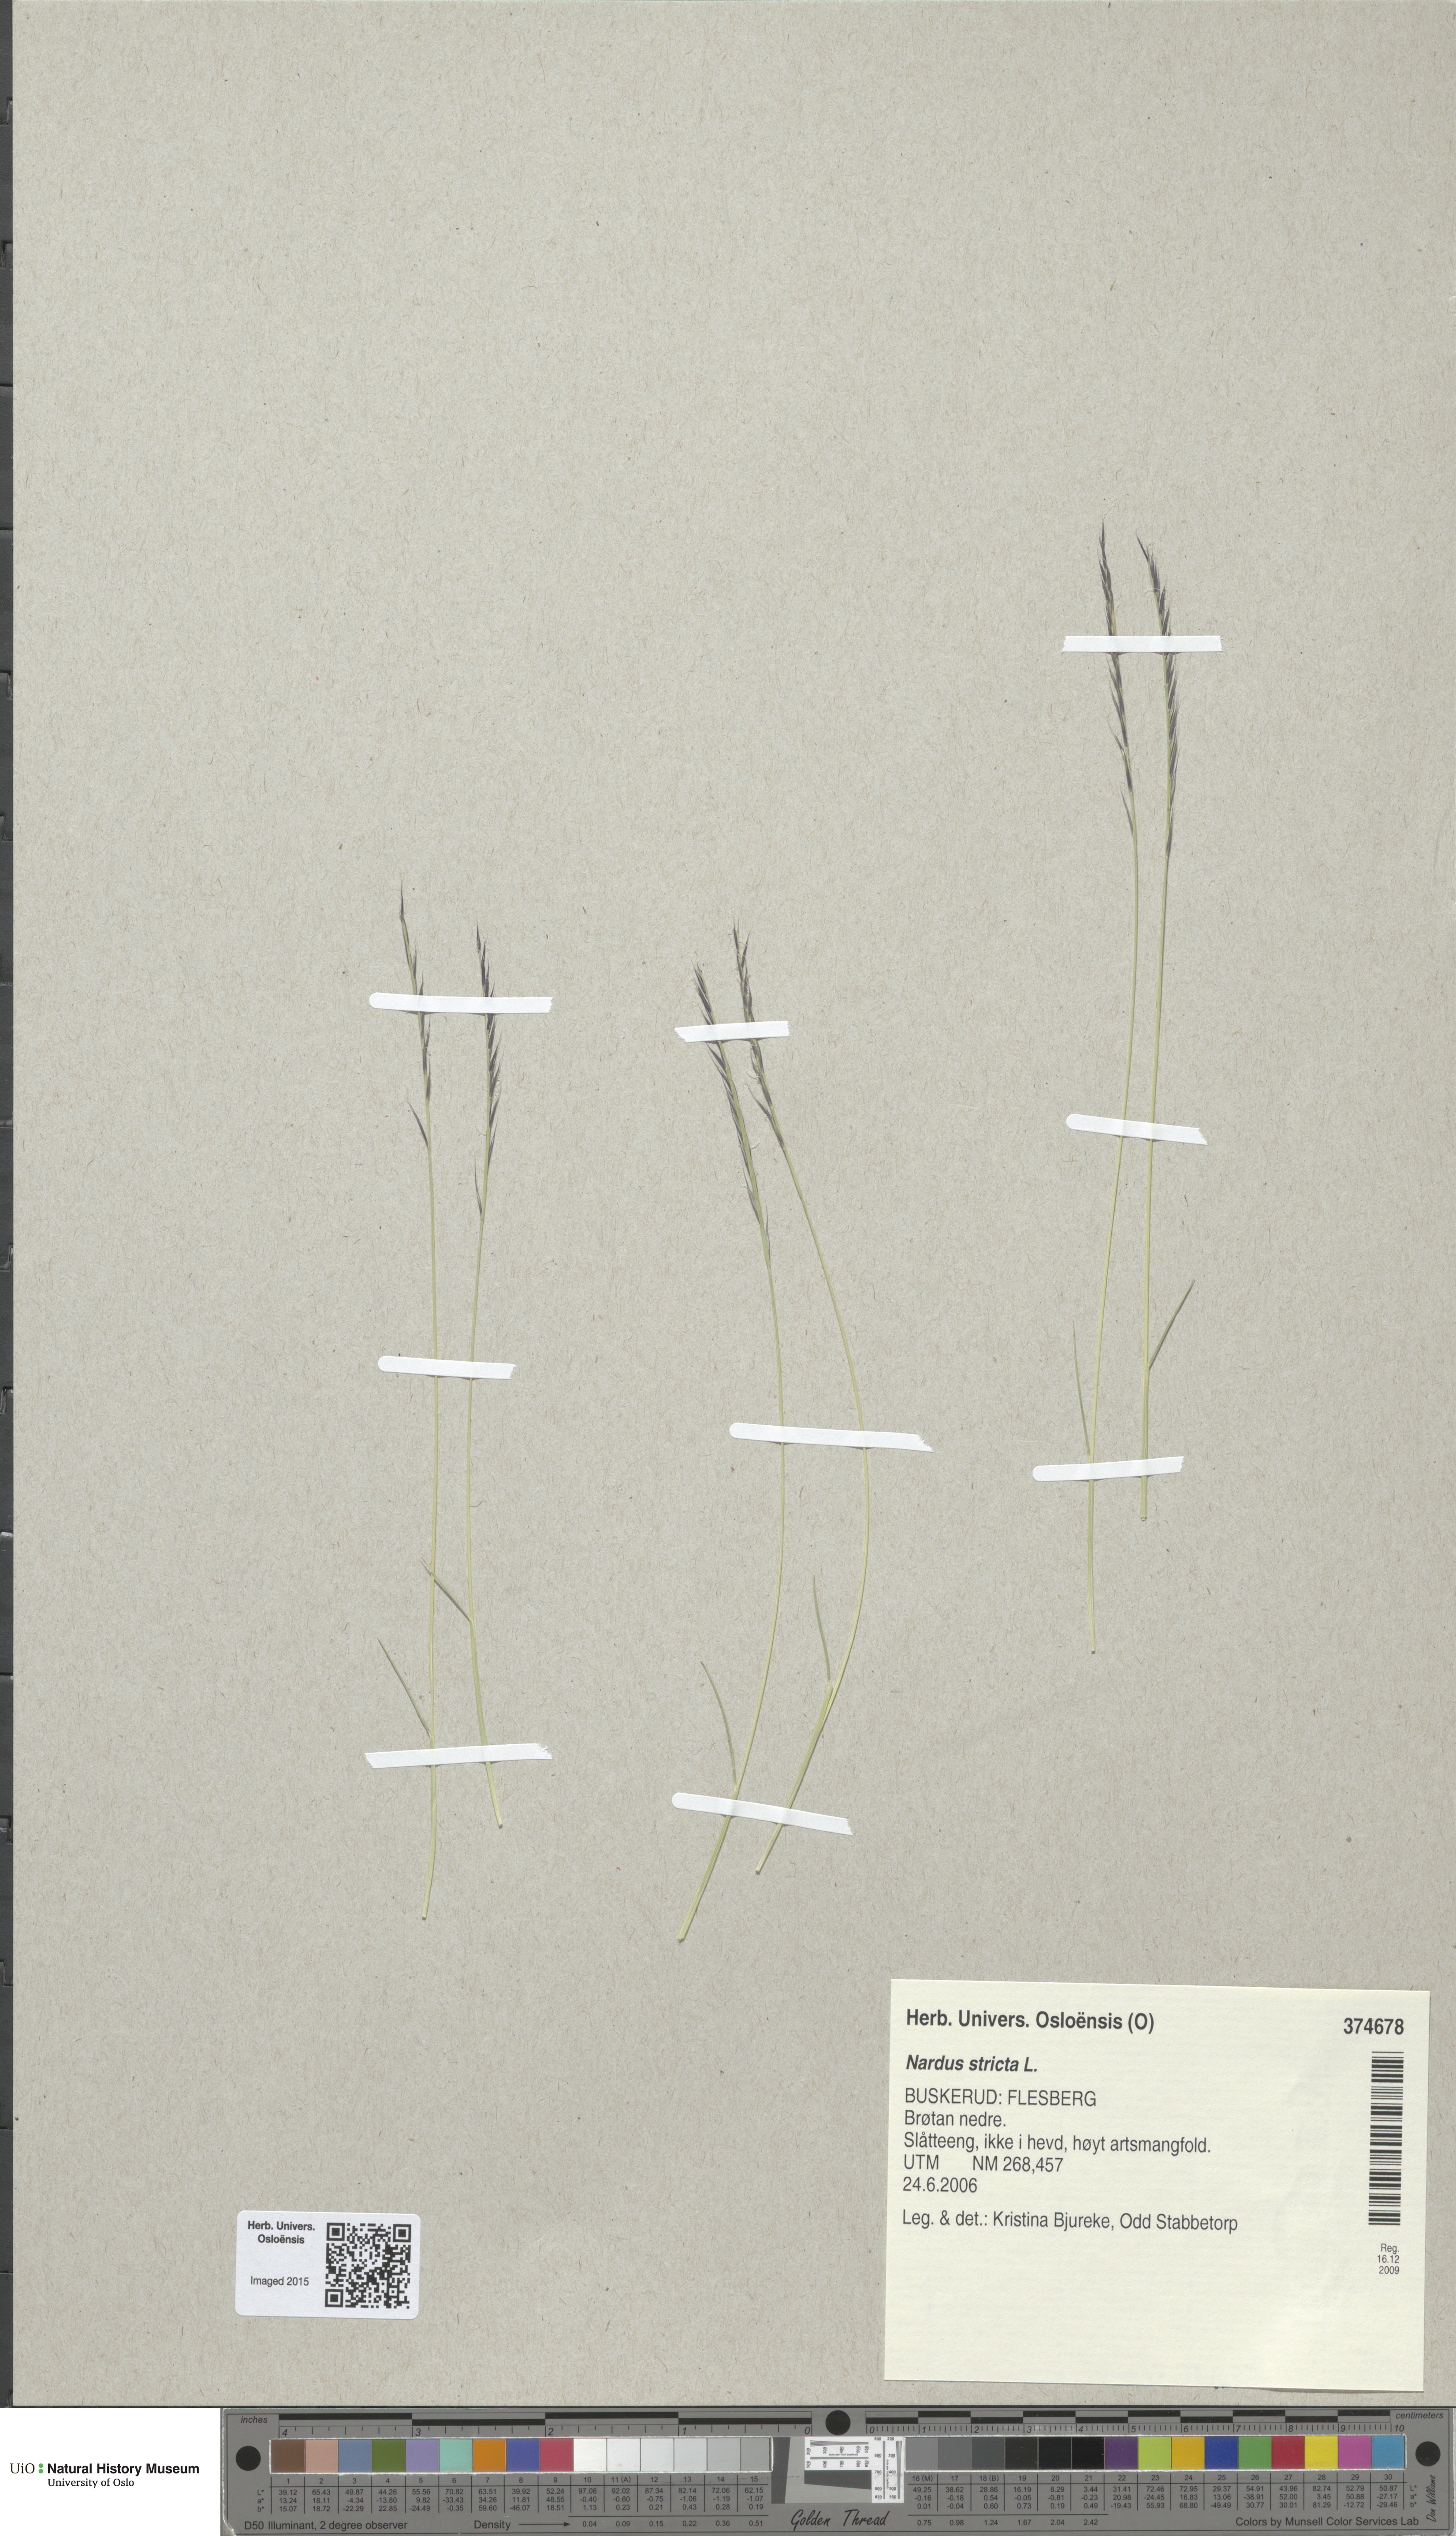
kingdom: Plantae
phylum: Tracheophyta
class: Liliopsida
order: Poales
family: Poaceae
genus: Nardus
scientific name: Nardus stricta
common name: Mat-grass
